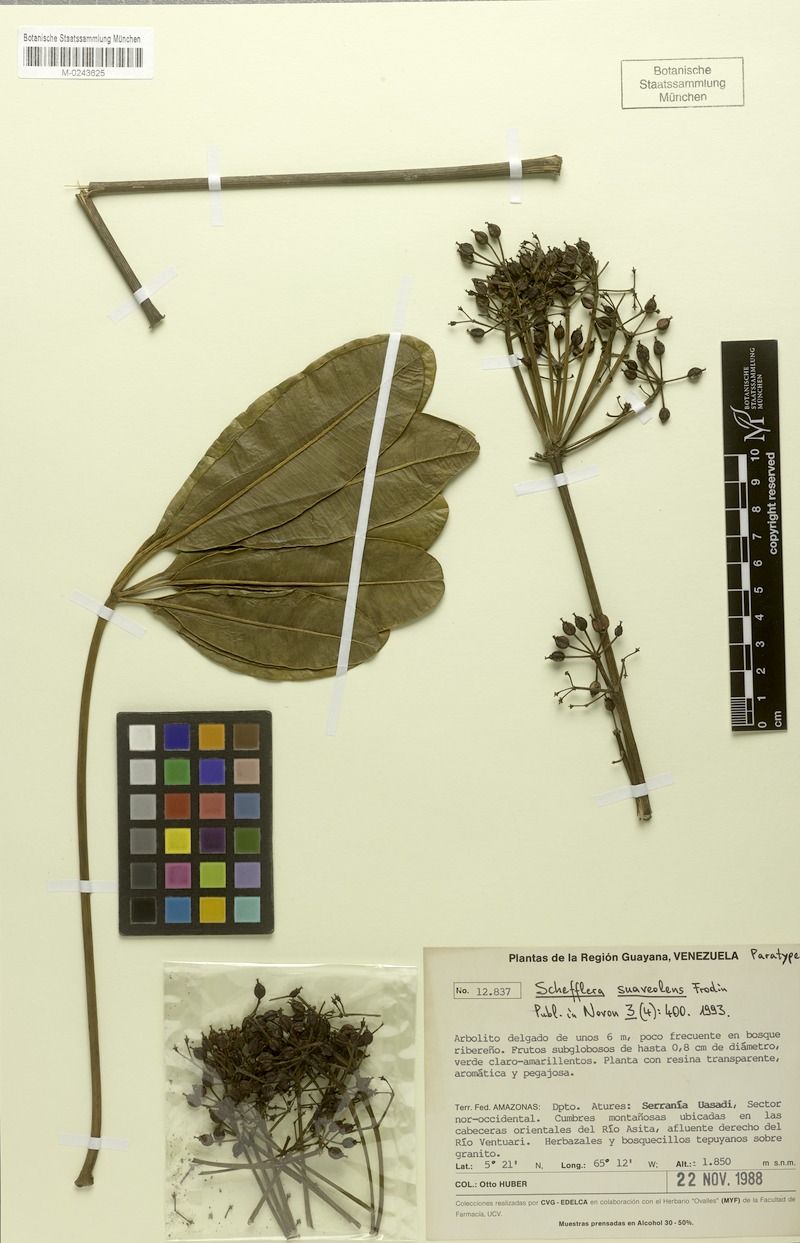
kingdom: Plantae
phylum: Tracheophyta
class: Magnoliopsida
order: Apiales
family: Araliaceae
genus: Crepinella
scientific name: Crepinella suaveolens
